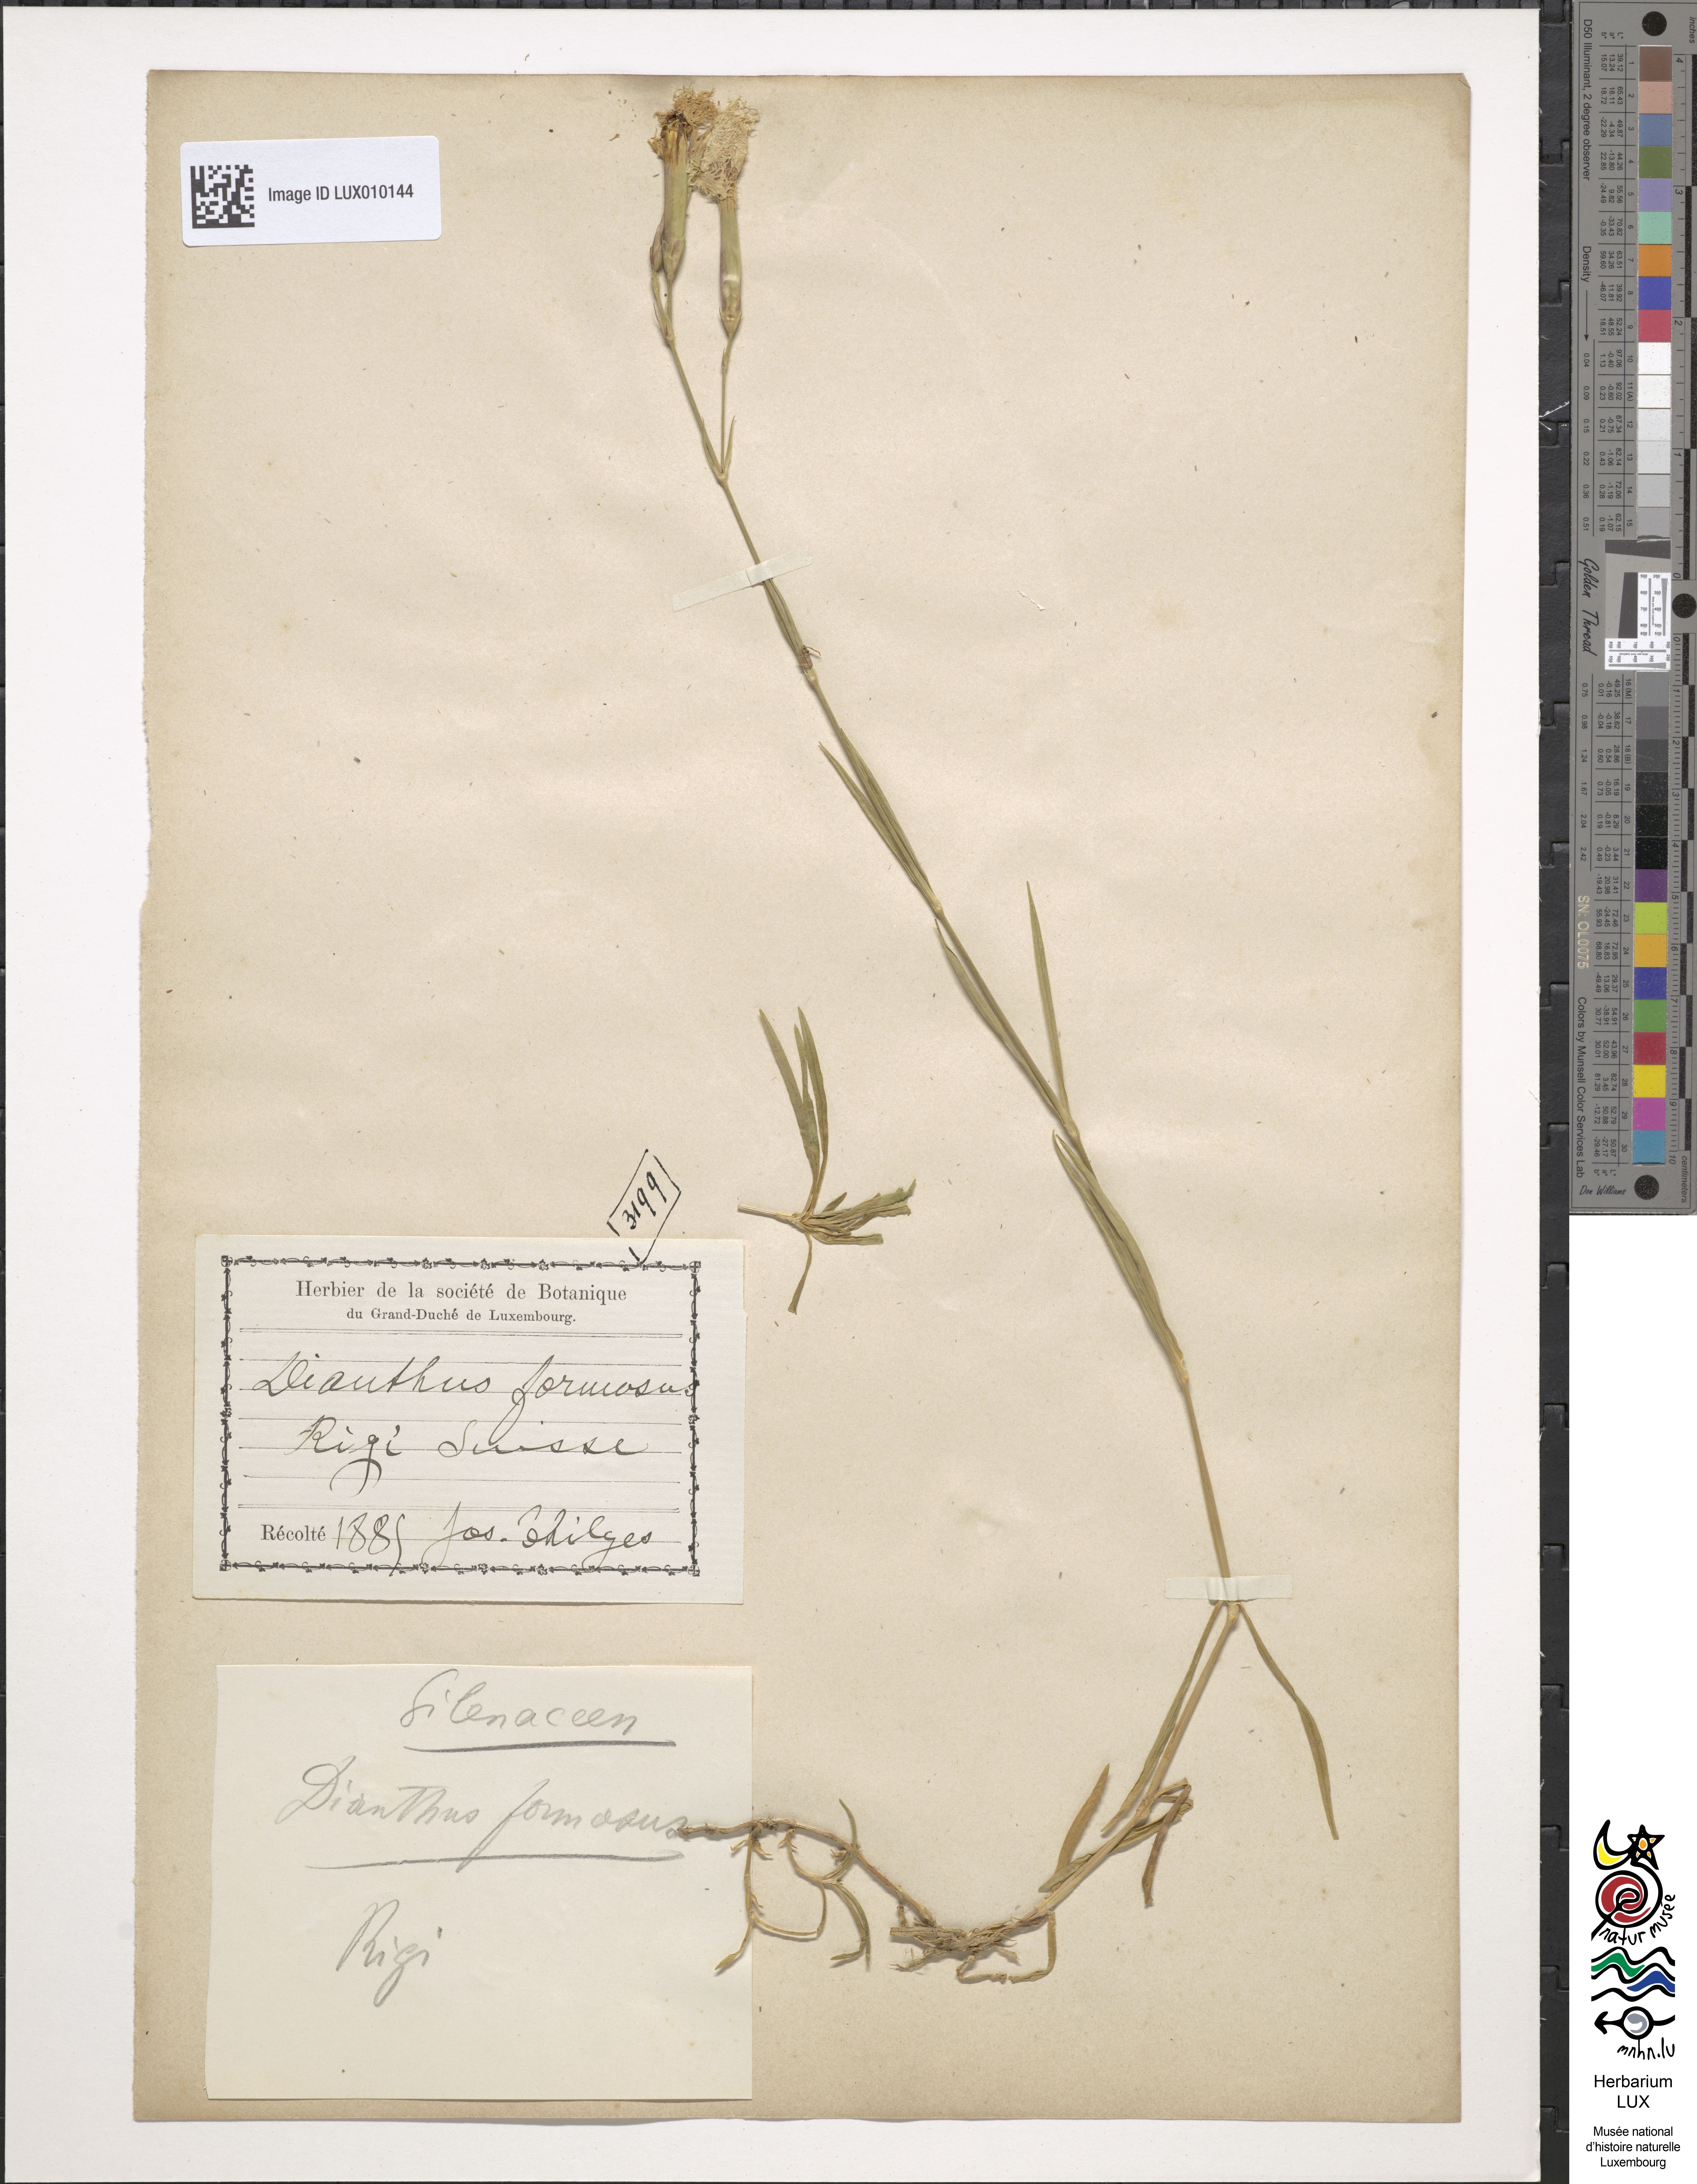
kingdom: Plantae
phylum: Tracheophyta
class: Magnoliopsida
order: Caryophyllales
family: Caryophyllaceae
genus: Dianthus
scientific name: Dianthus
